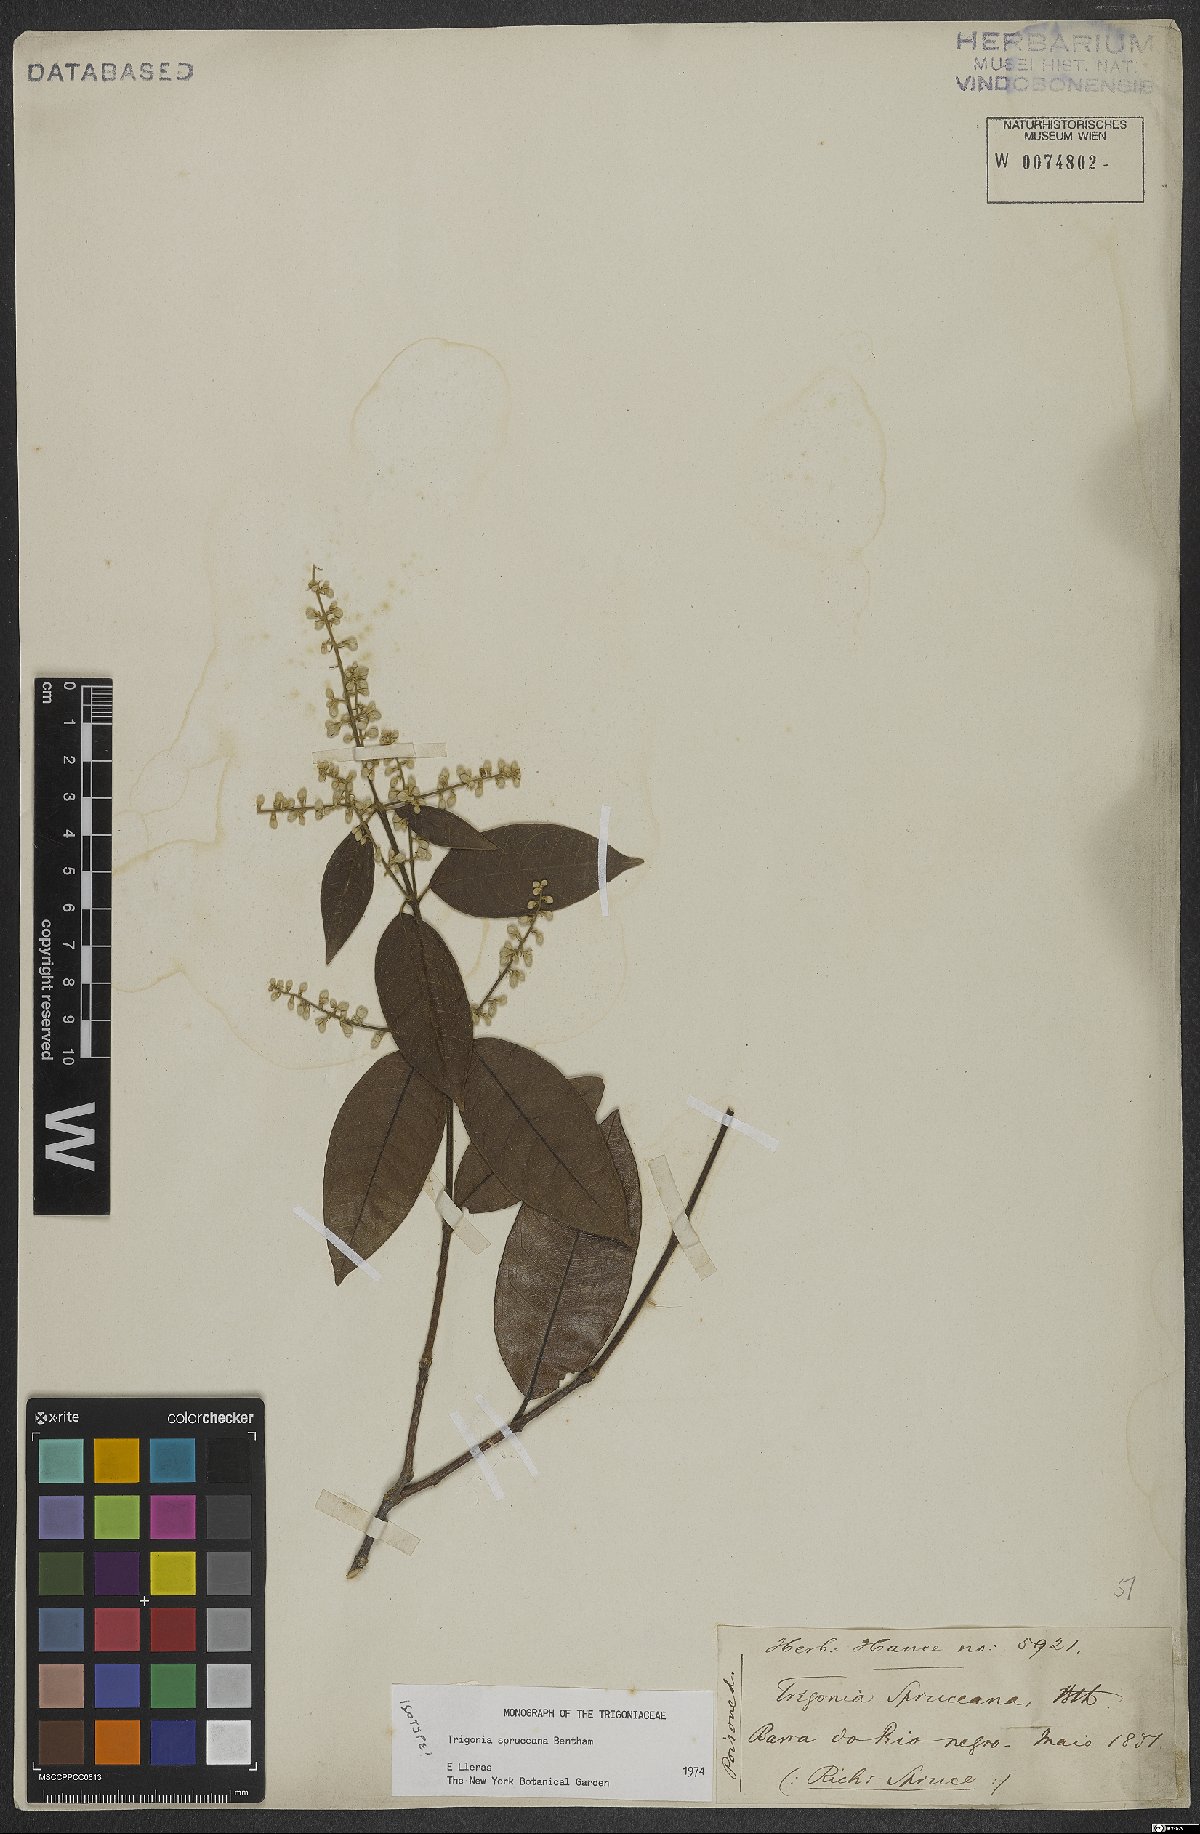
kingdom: Plantae
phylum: Tracheophyta
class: Magnoliopsida
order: Malpighiales
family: Trigoniaceae
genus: Trigonia
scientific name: Trigonia spruceana
